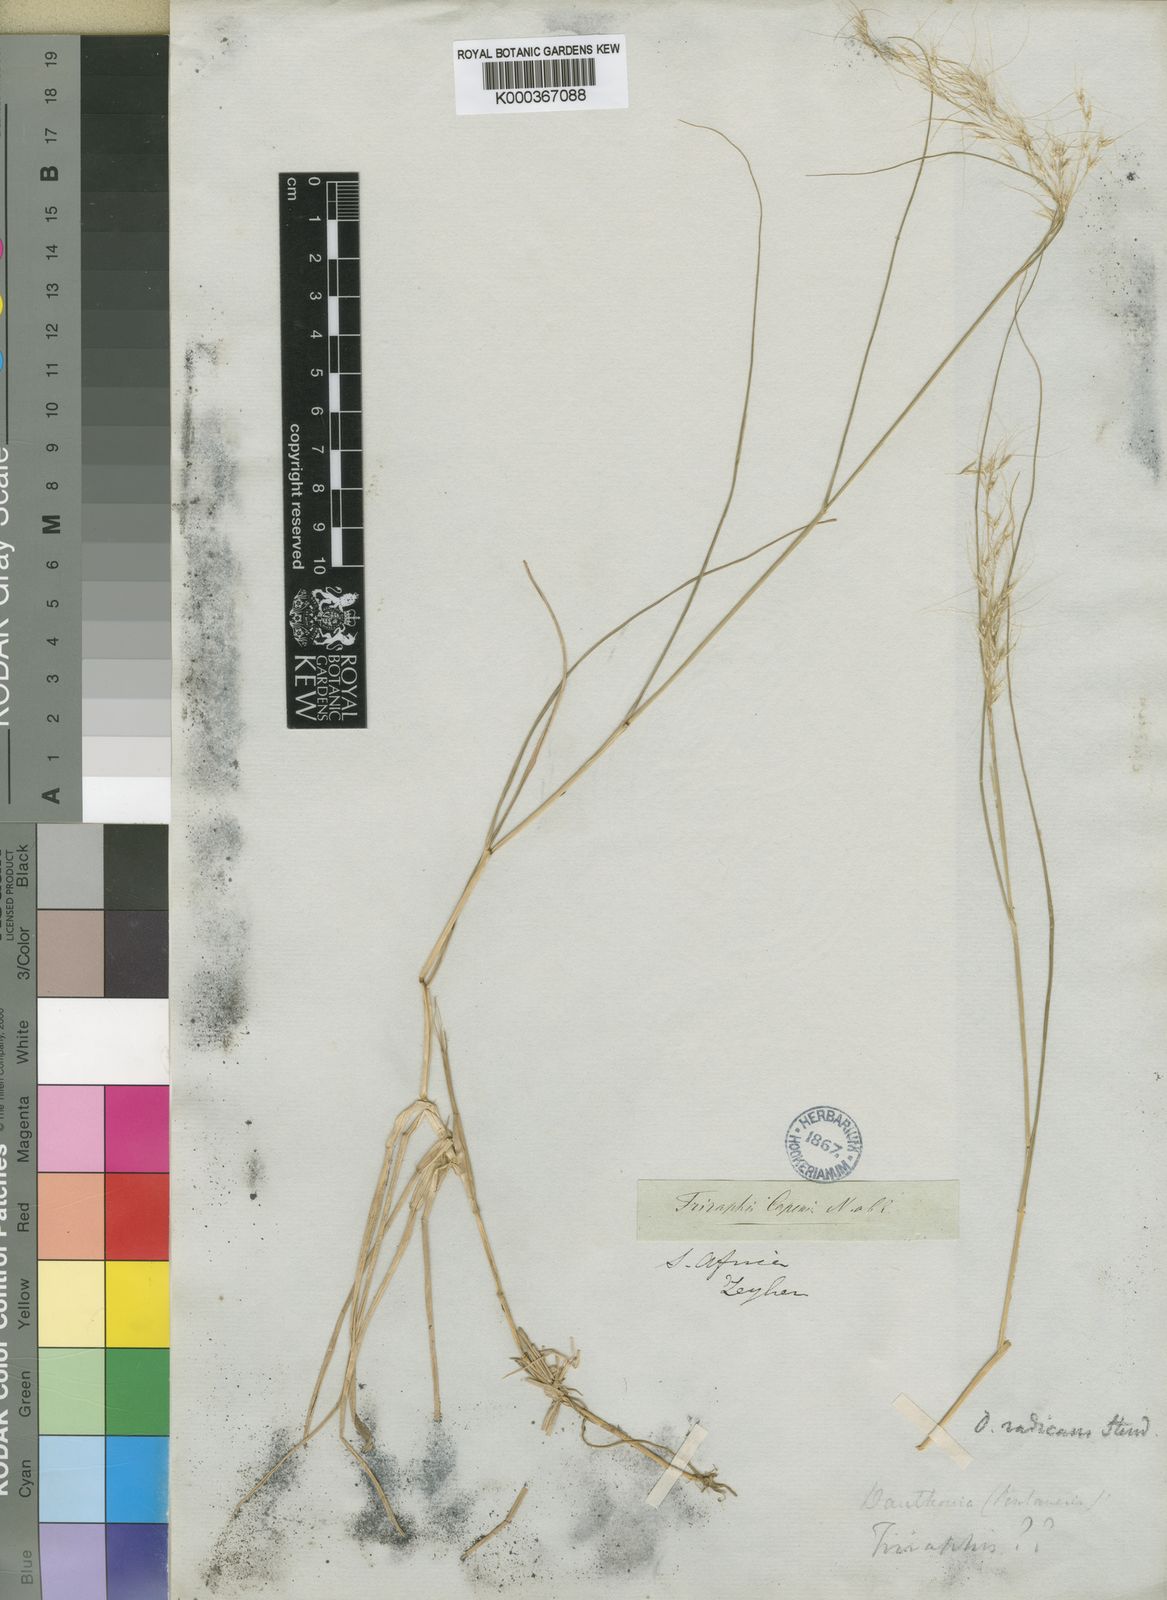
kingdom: Plantae
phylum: Tracheophyta
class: Liliopsida
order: Poales
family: Poaceae
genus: Pentameris
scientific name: Pentameris capensis
